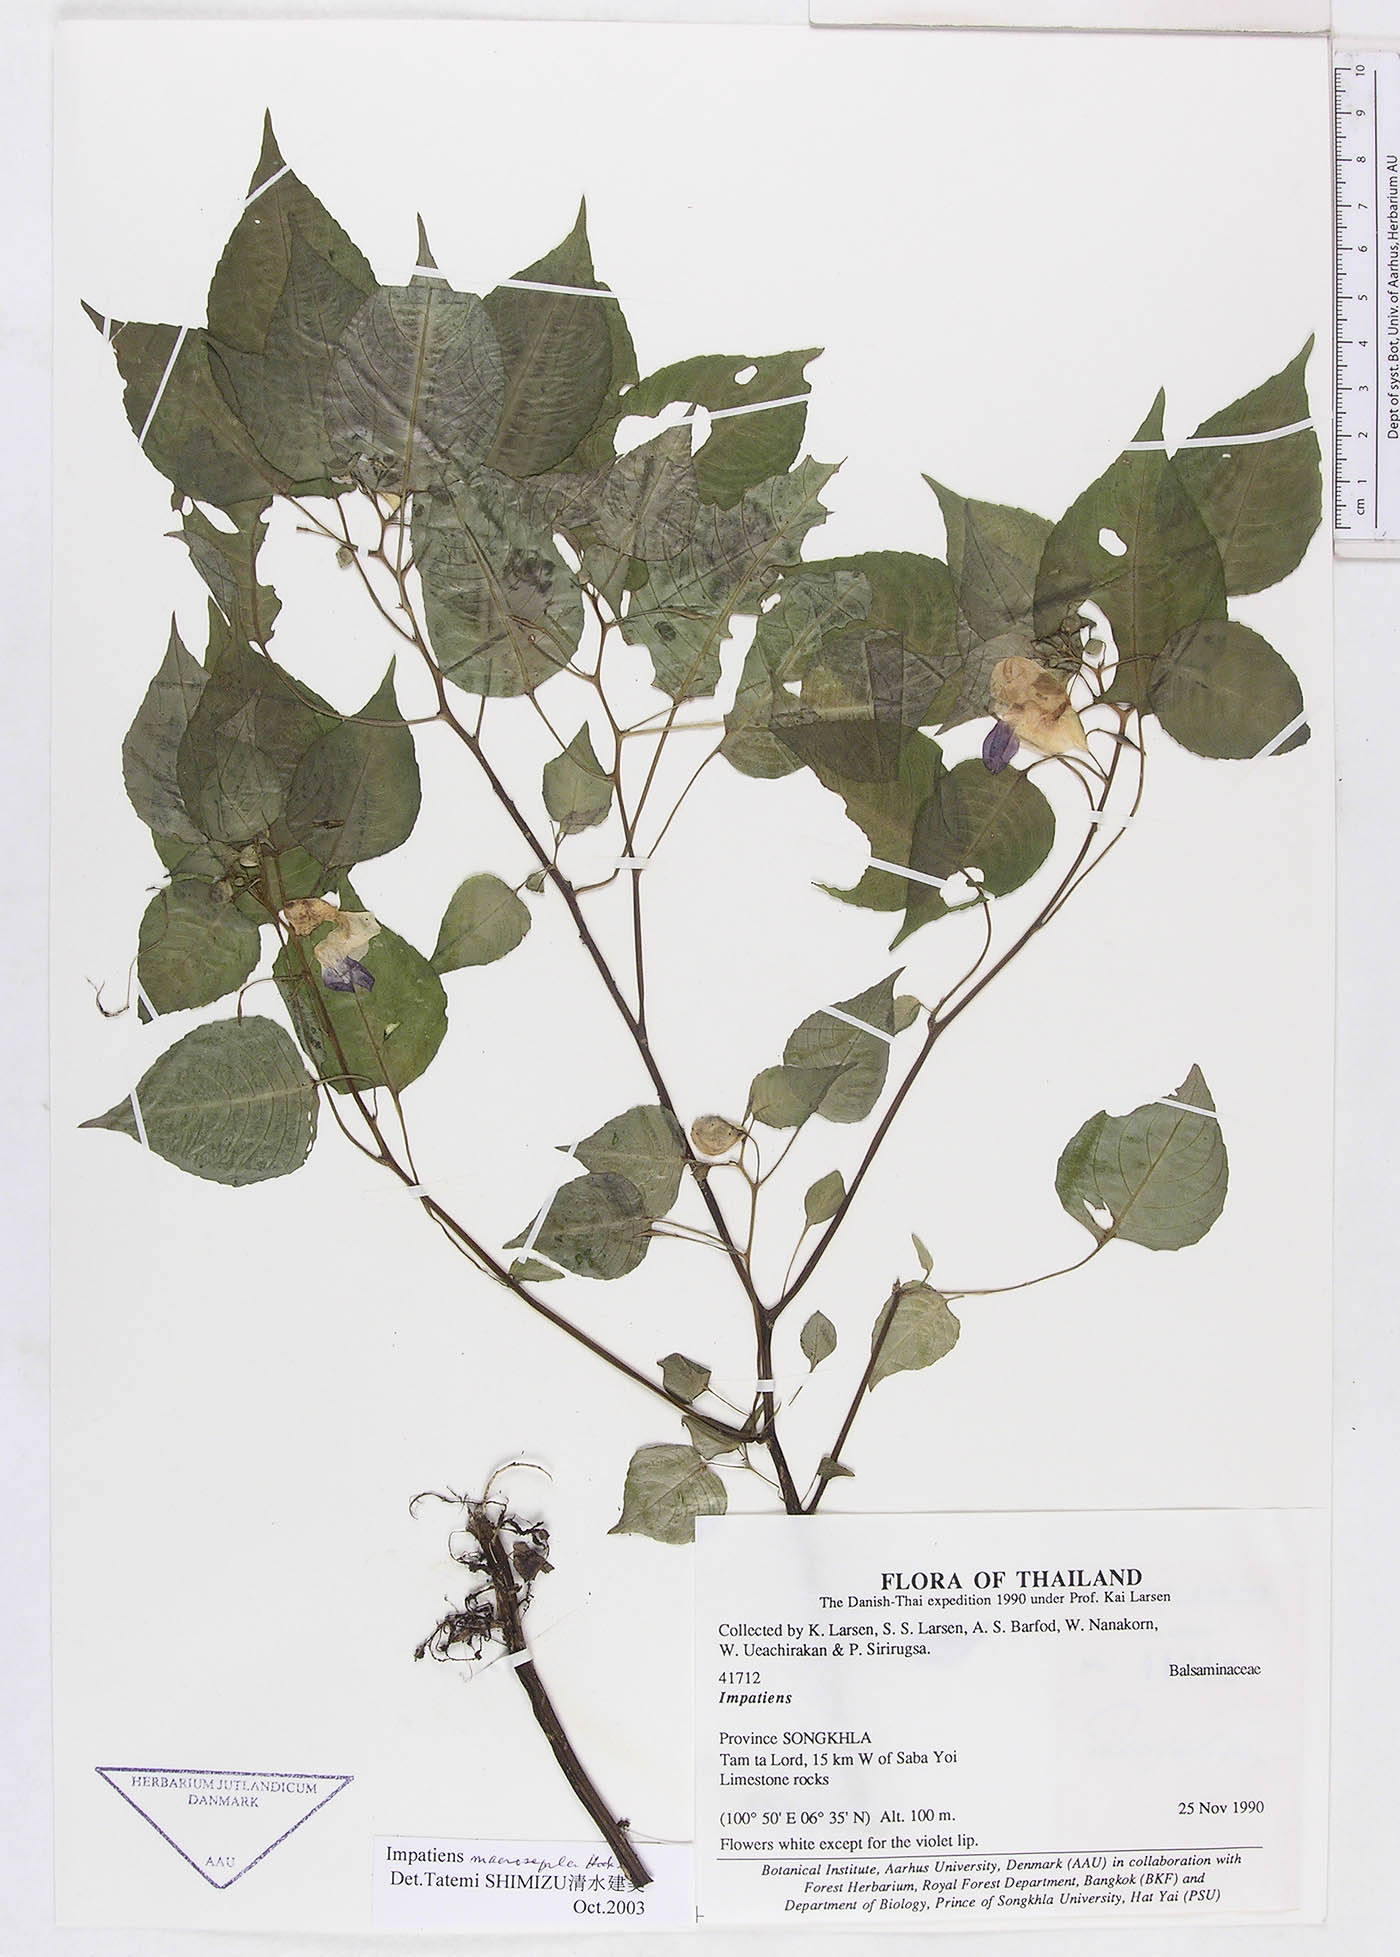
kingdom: Plantae
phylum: Tracheophyta
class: Magnoliopsida
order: Ericales
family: Balsaminaceae
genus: Impatiens
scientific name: Impatiens vaughanii
